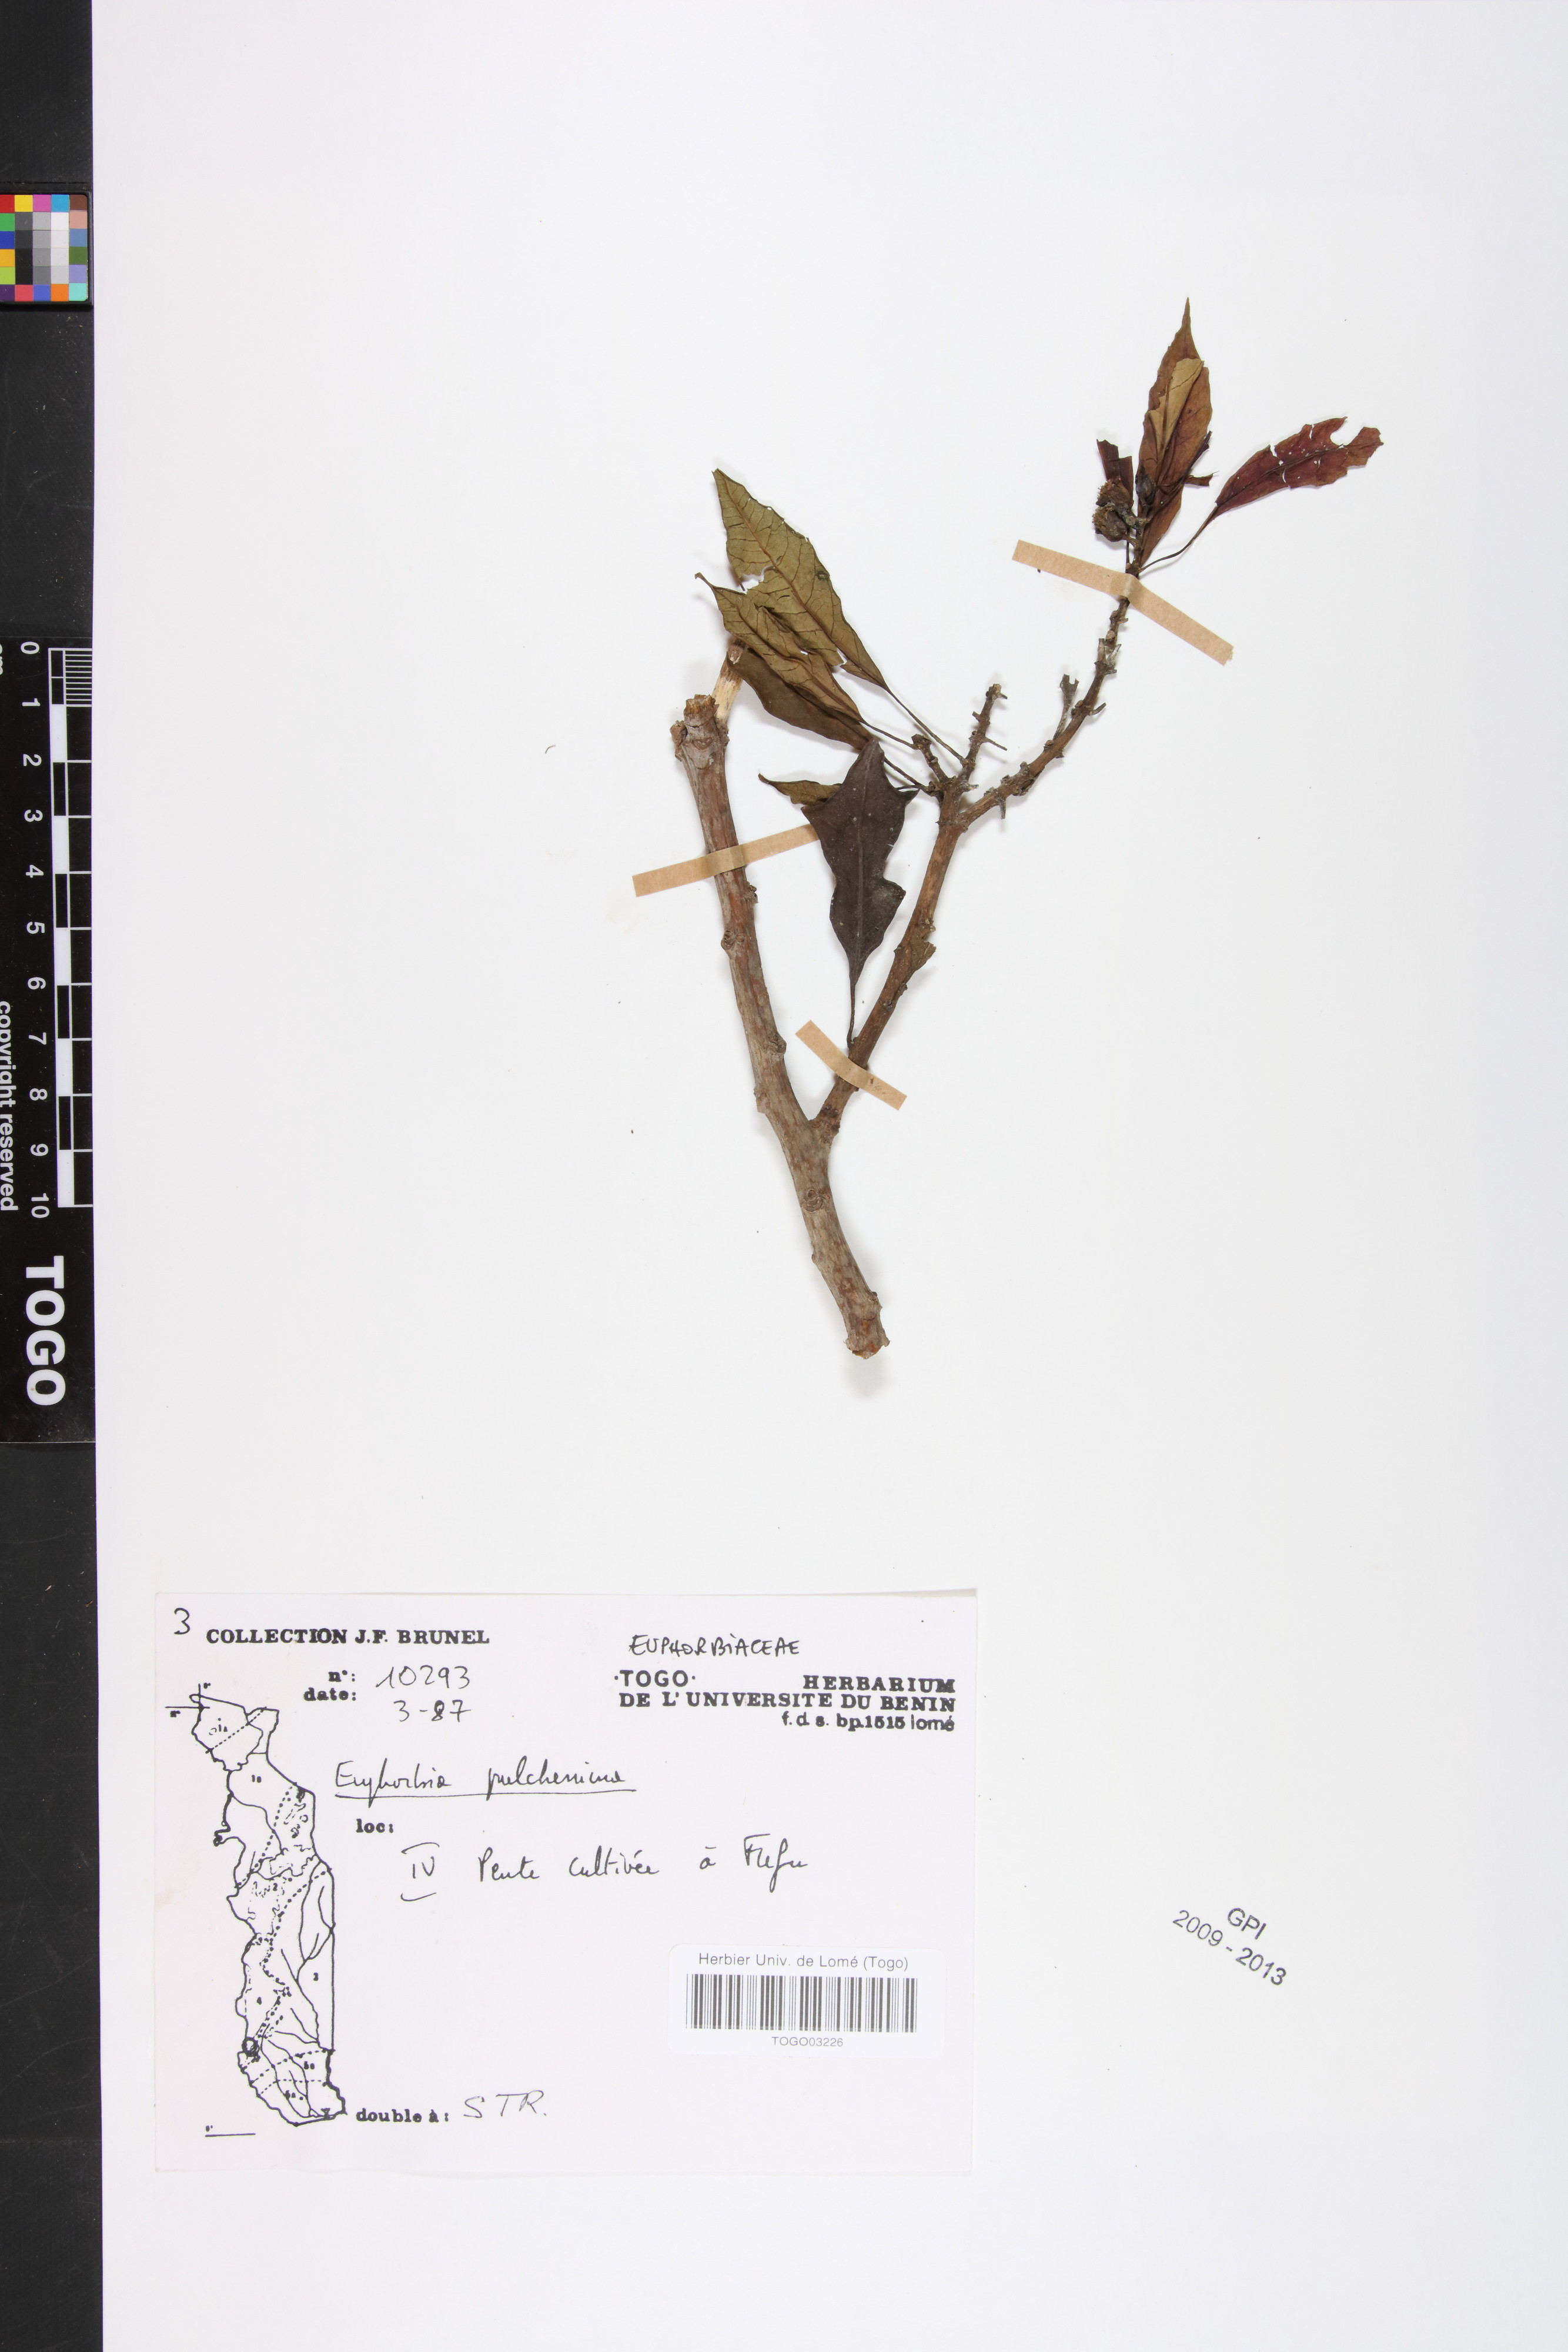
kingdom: Plantae
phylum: Tracheophyta
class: Magnoliopsida
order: Malpighiales
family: Euphorbiaceae
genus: Euphorbia
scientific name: Euphorbia pulcherrima
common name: Christmas-flower
